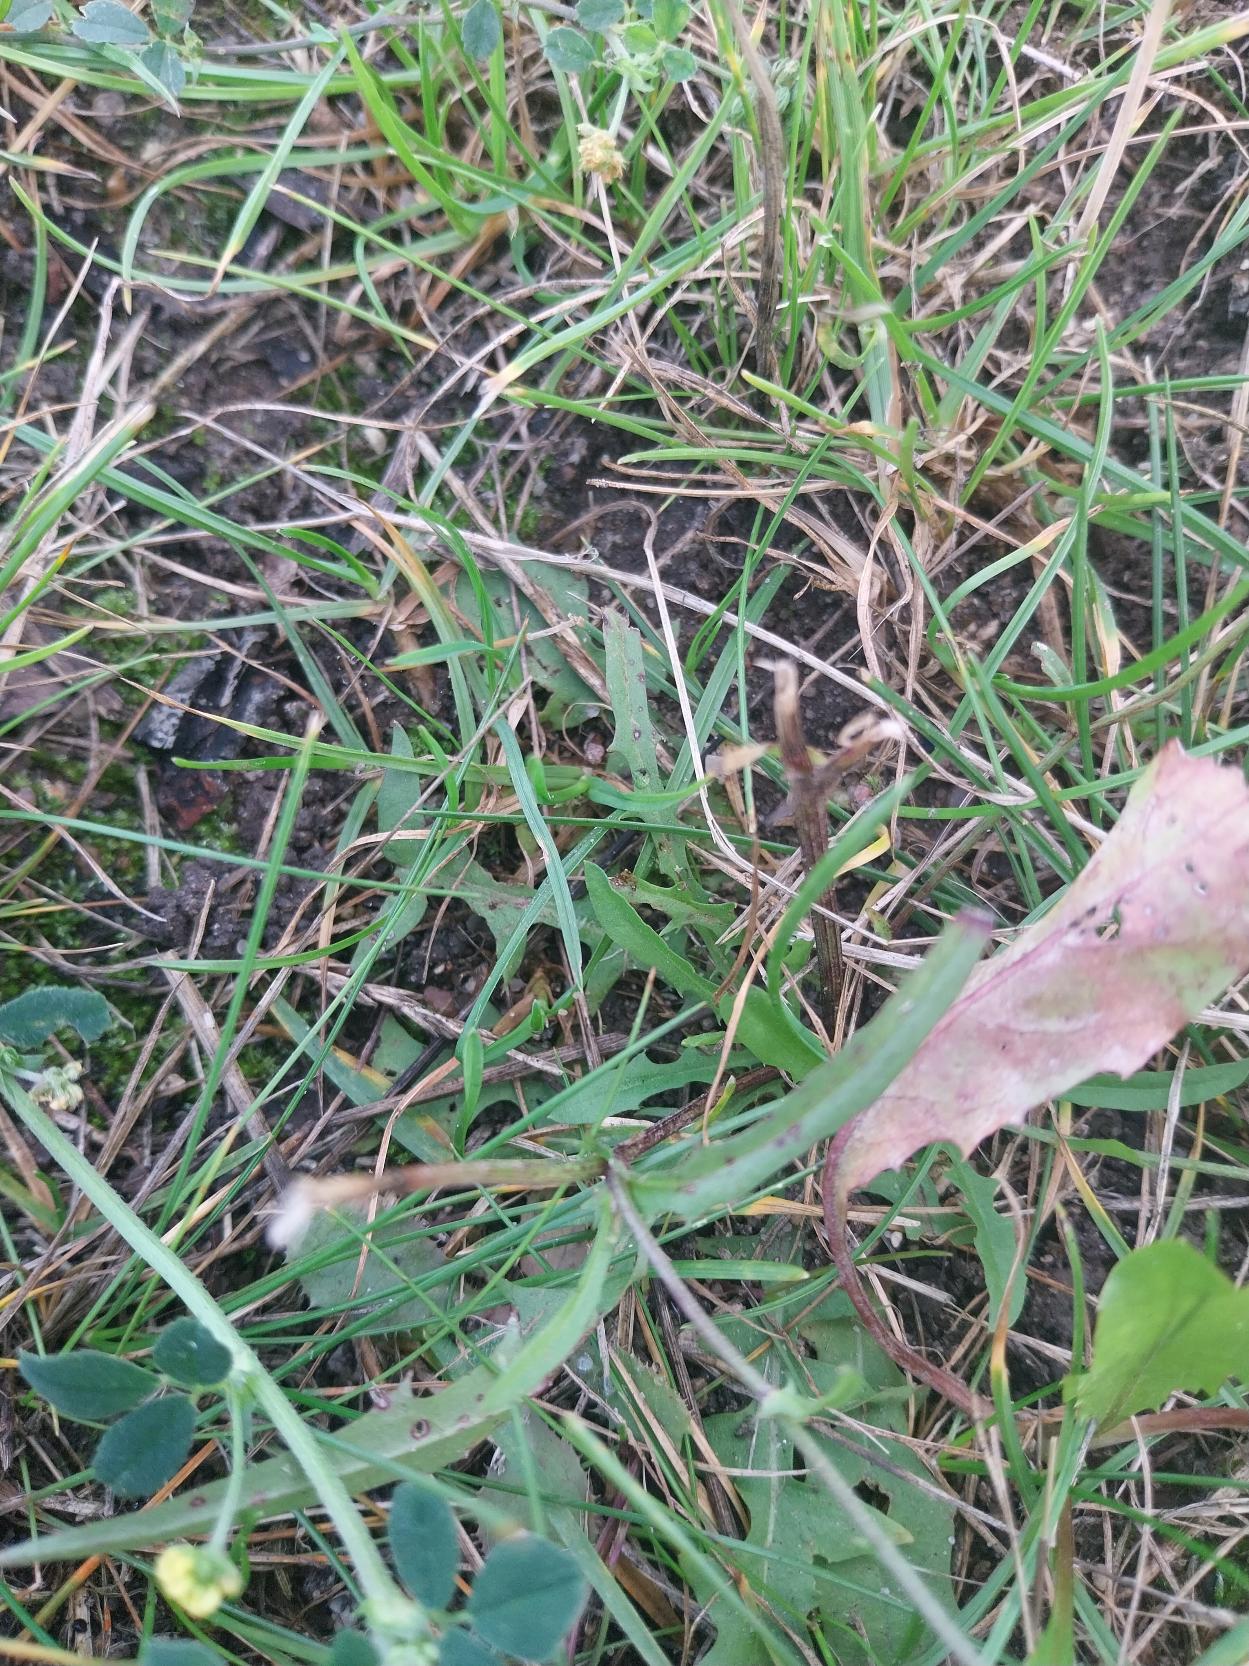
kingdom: Plantae
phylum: Tracheophyta
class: Magnoliopsida
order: Asterales
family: Asteraceae
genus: Crepis
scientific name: Crepis capillaris
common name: Grøn høgeskæg
